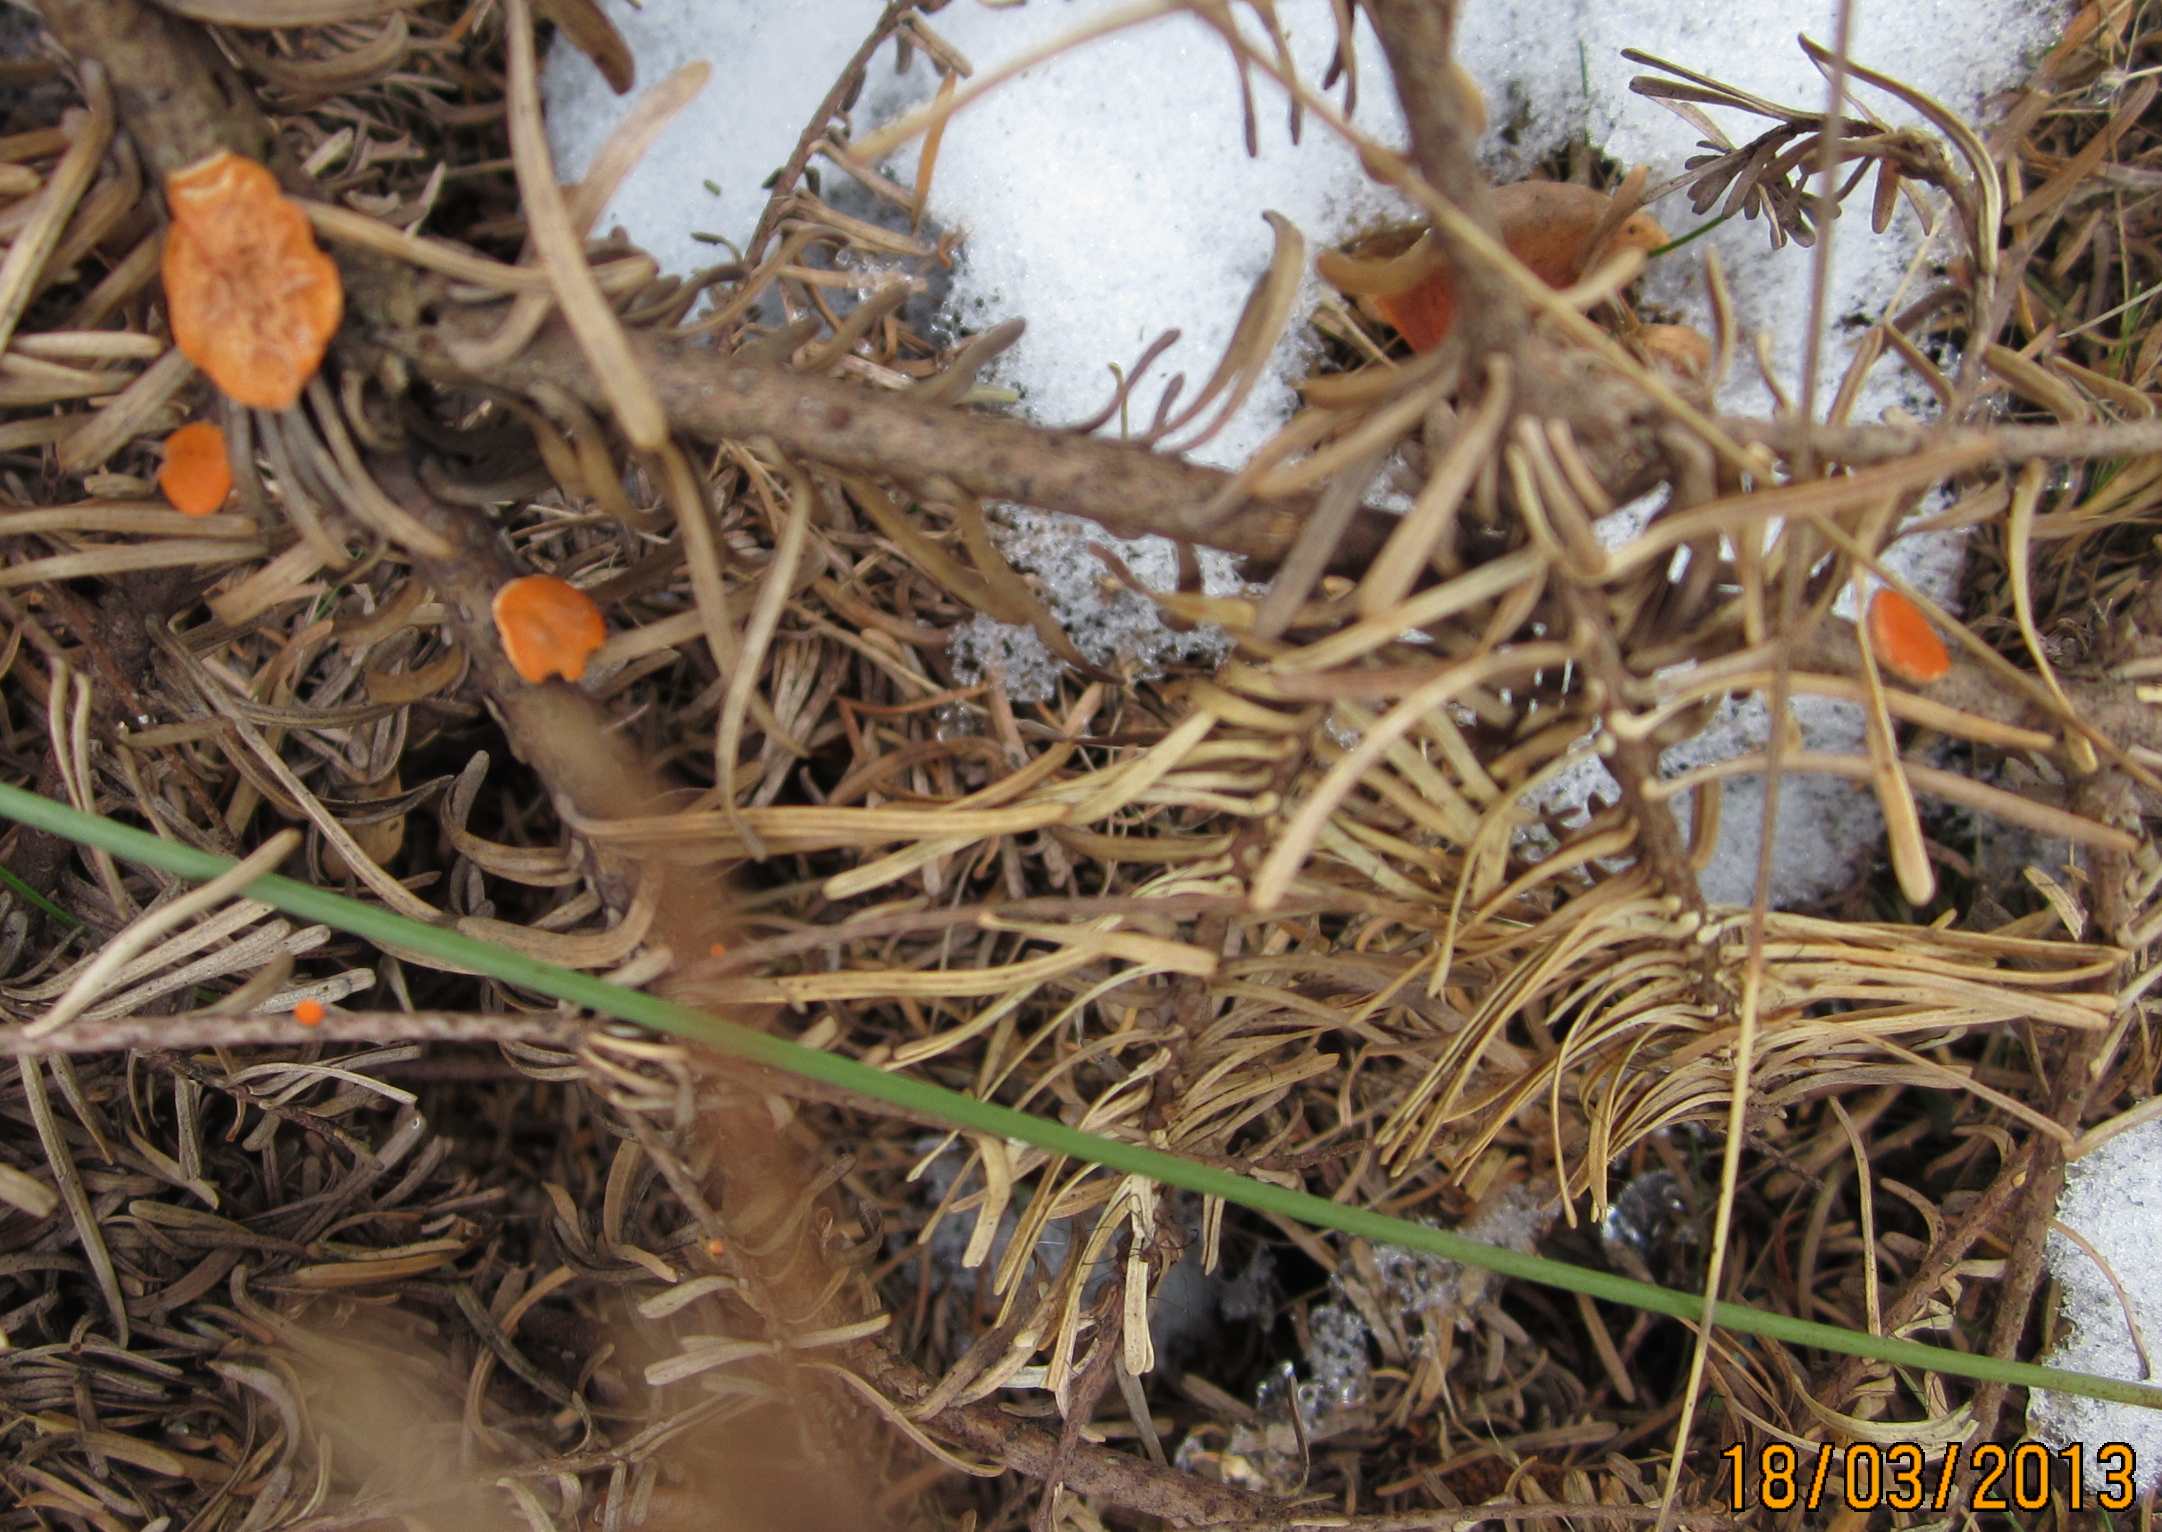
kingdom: Fungi
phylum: Ascomycota
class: Pezizomycetes
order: Pezizales
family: Sarcoscyphaceae
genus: Pithya
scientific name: Pithya vulgaris
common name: stor dukatbæger
